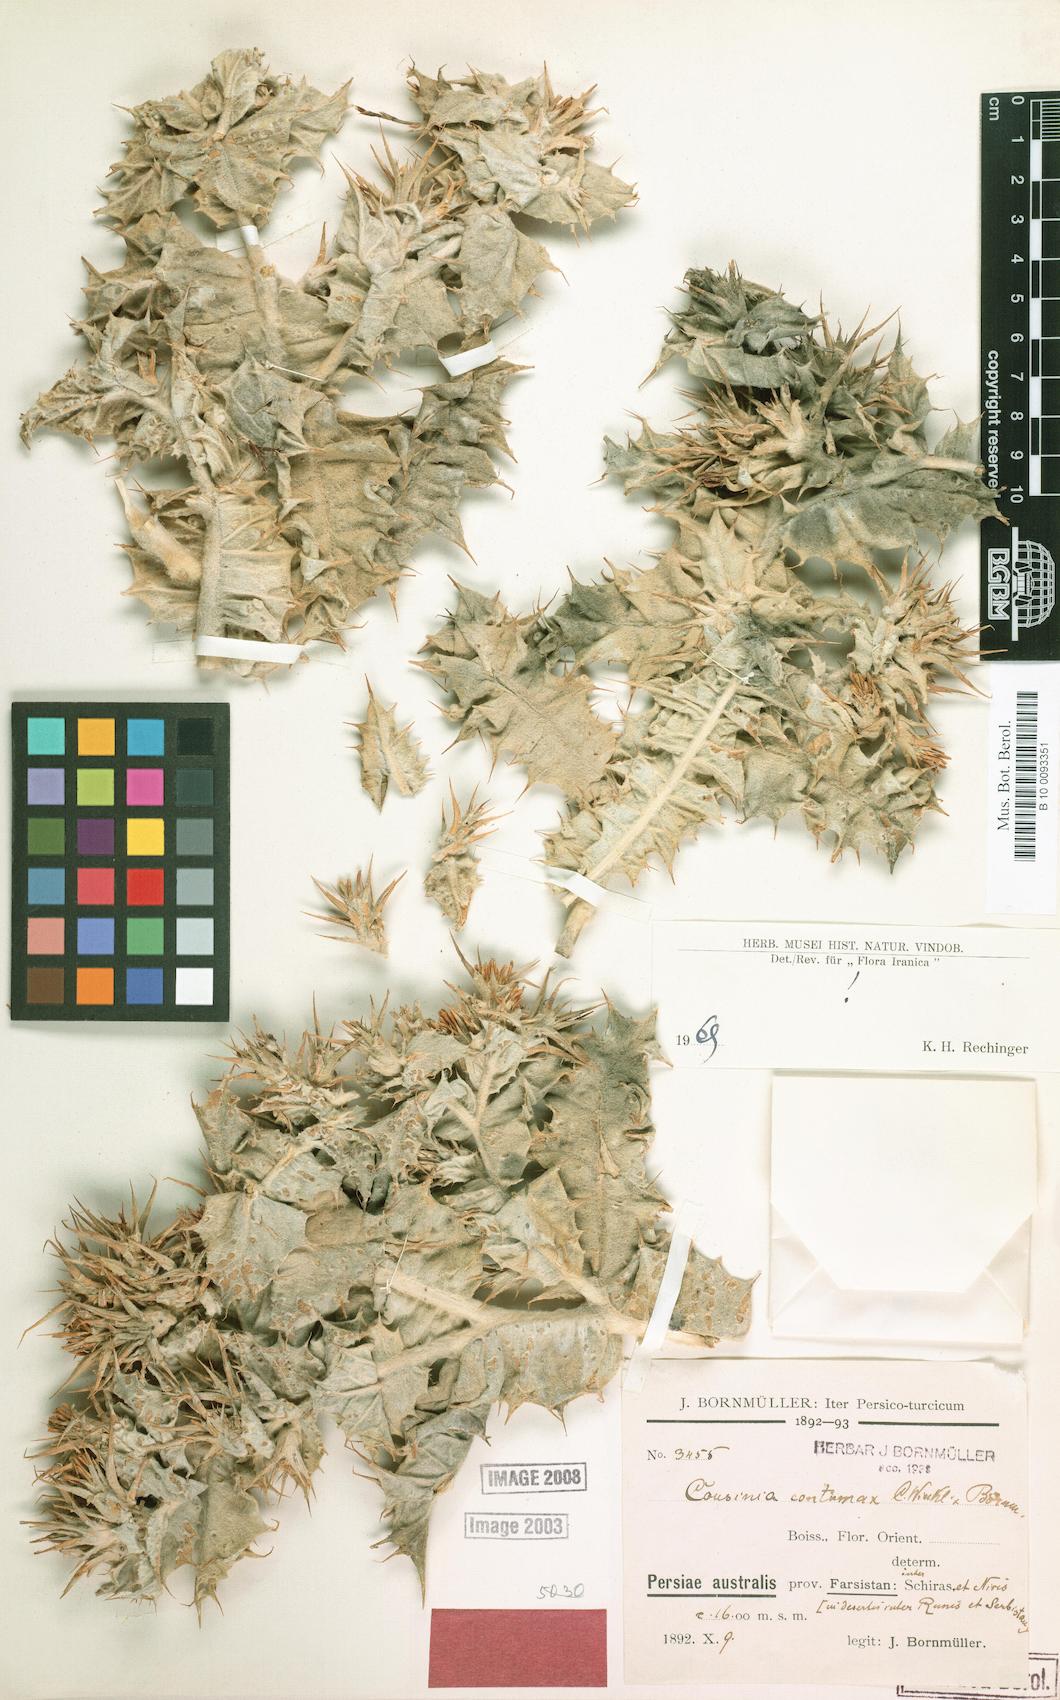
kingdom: Plantae
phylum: Tracheophyta
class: Magnoliopsida
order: Asterales
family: Asteraceae
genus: Cousinia
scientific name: Cousinia contumax
